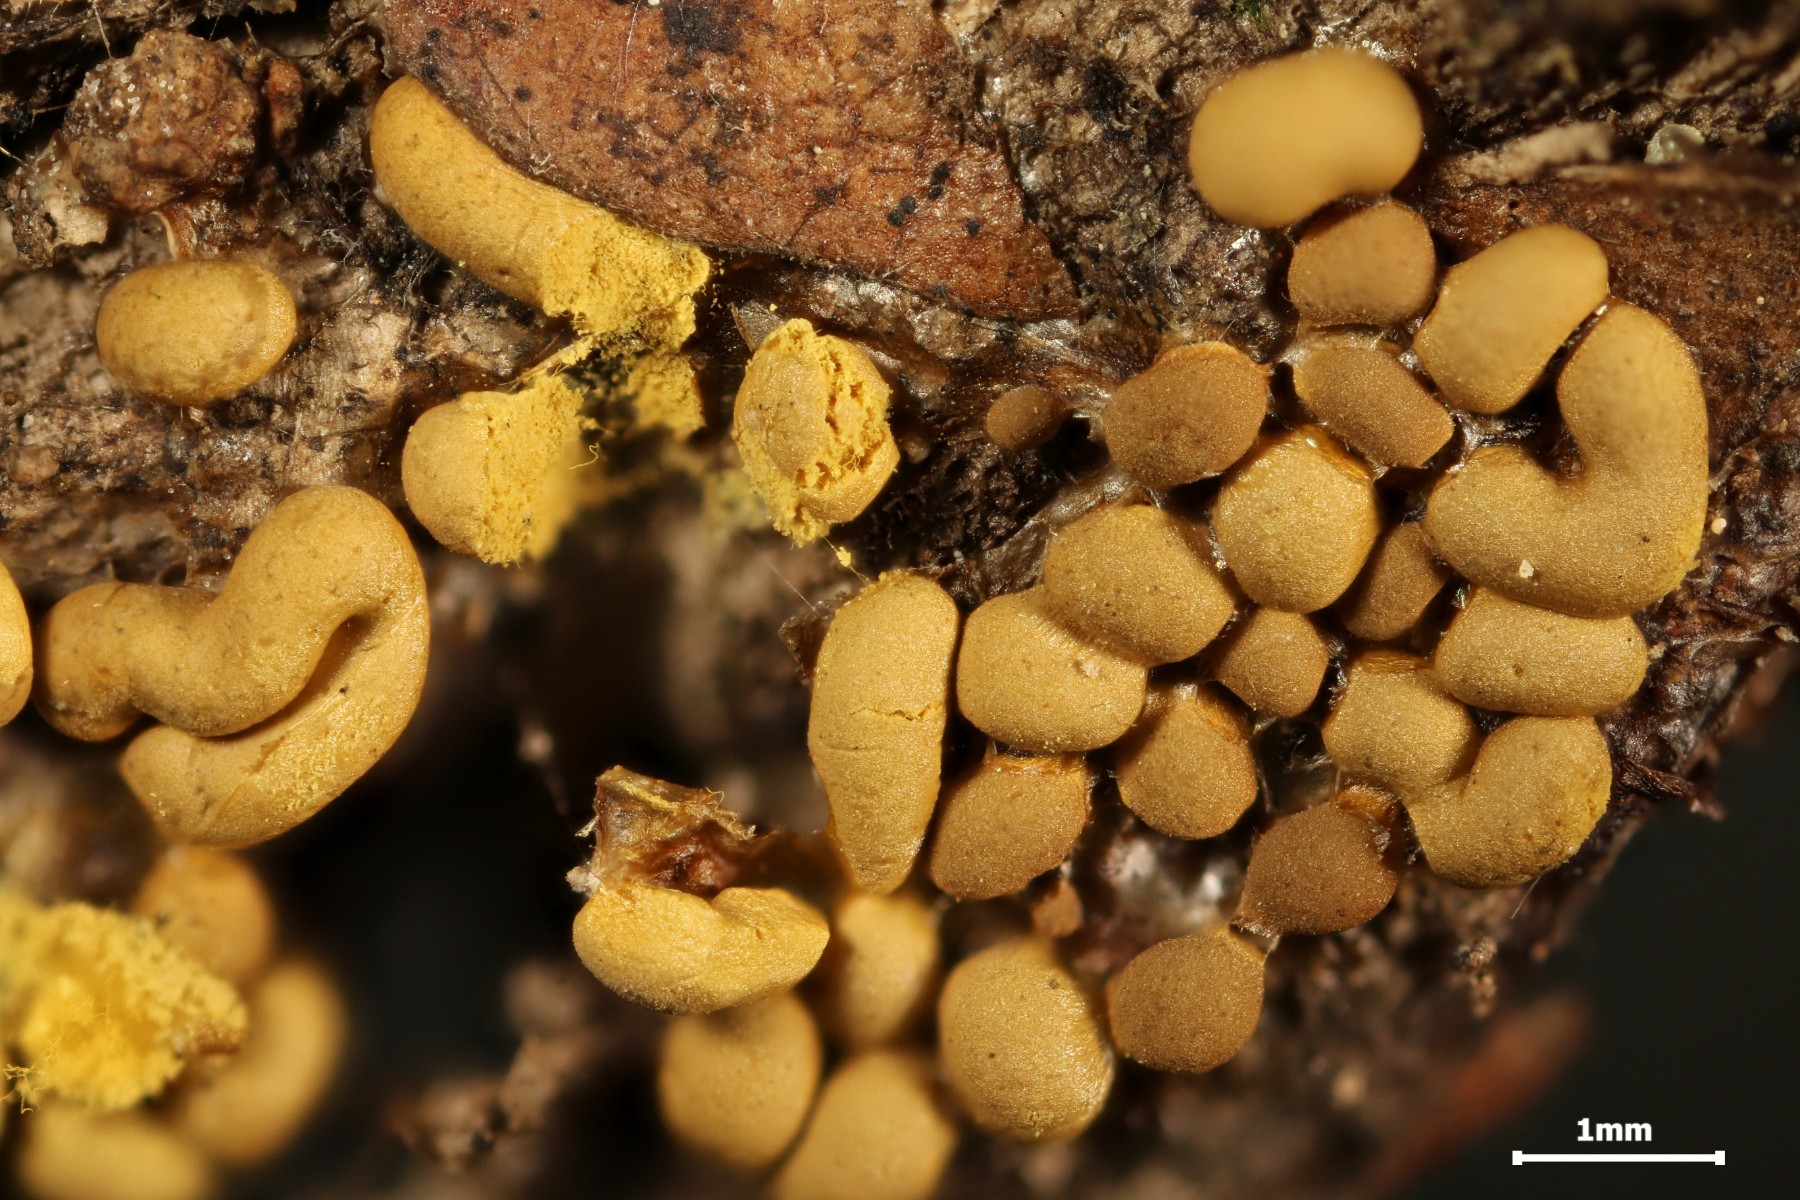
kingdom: Protozoa
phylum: Mycetozoa
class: Myxomycetes
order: Trichiales
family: Trichiaceae
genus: Trichia
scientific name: Trichia varia
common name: foranderlig hårbold
